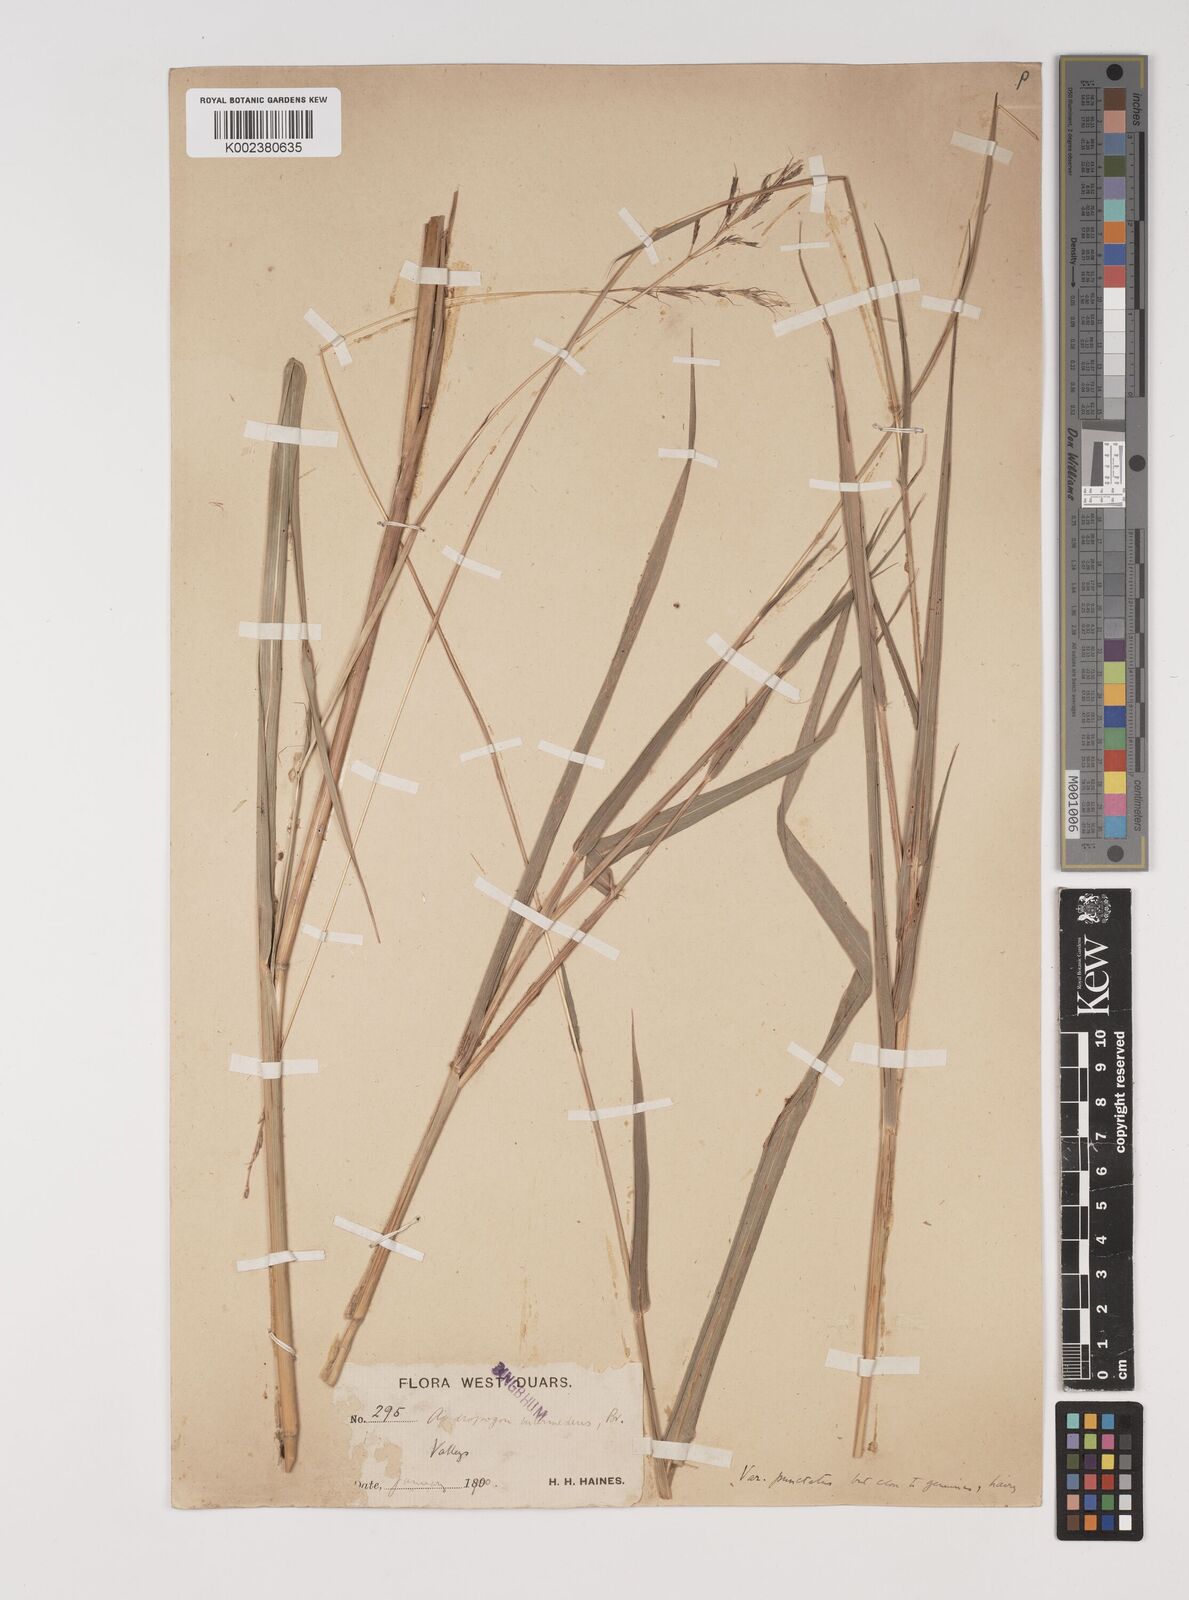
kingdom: Plantae
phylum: Tracheophyta
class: Liliopsida
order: Poales
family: Poaceae
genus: Bothriochloa
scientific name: Bothriochloa bladhii
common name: Caucasian bluestem
